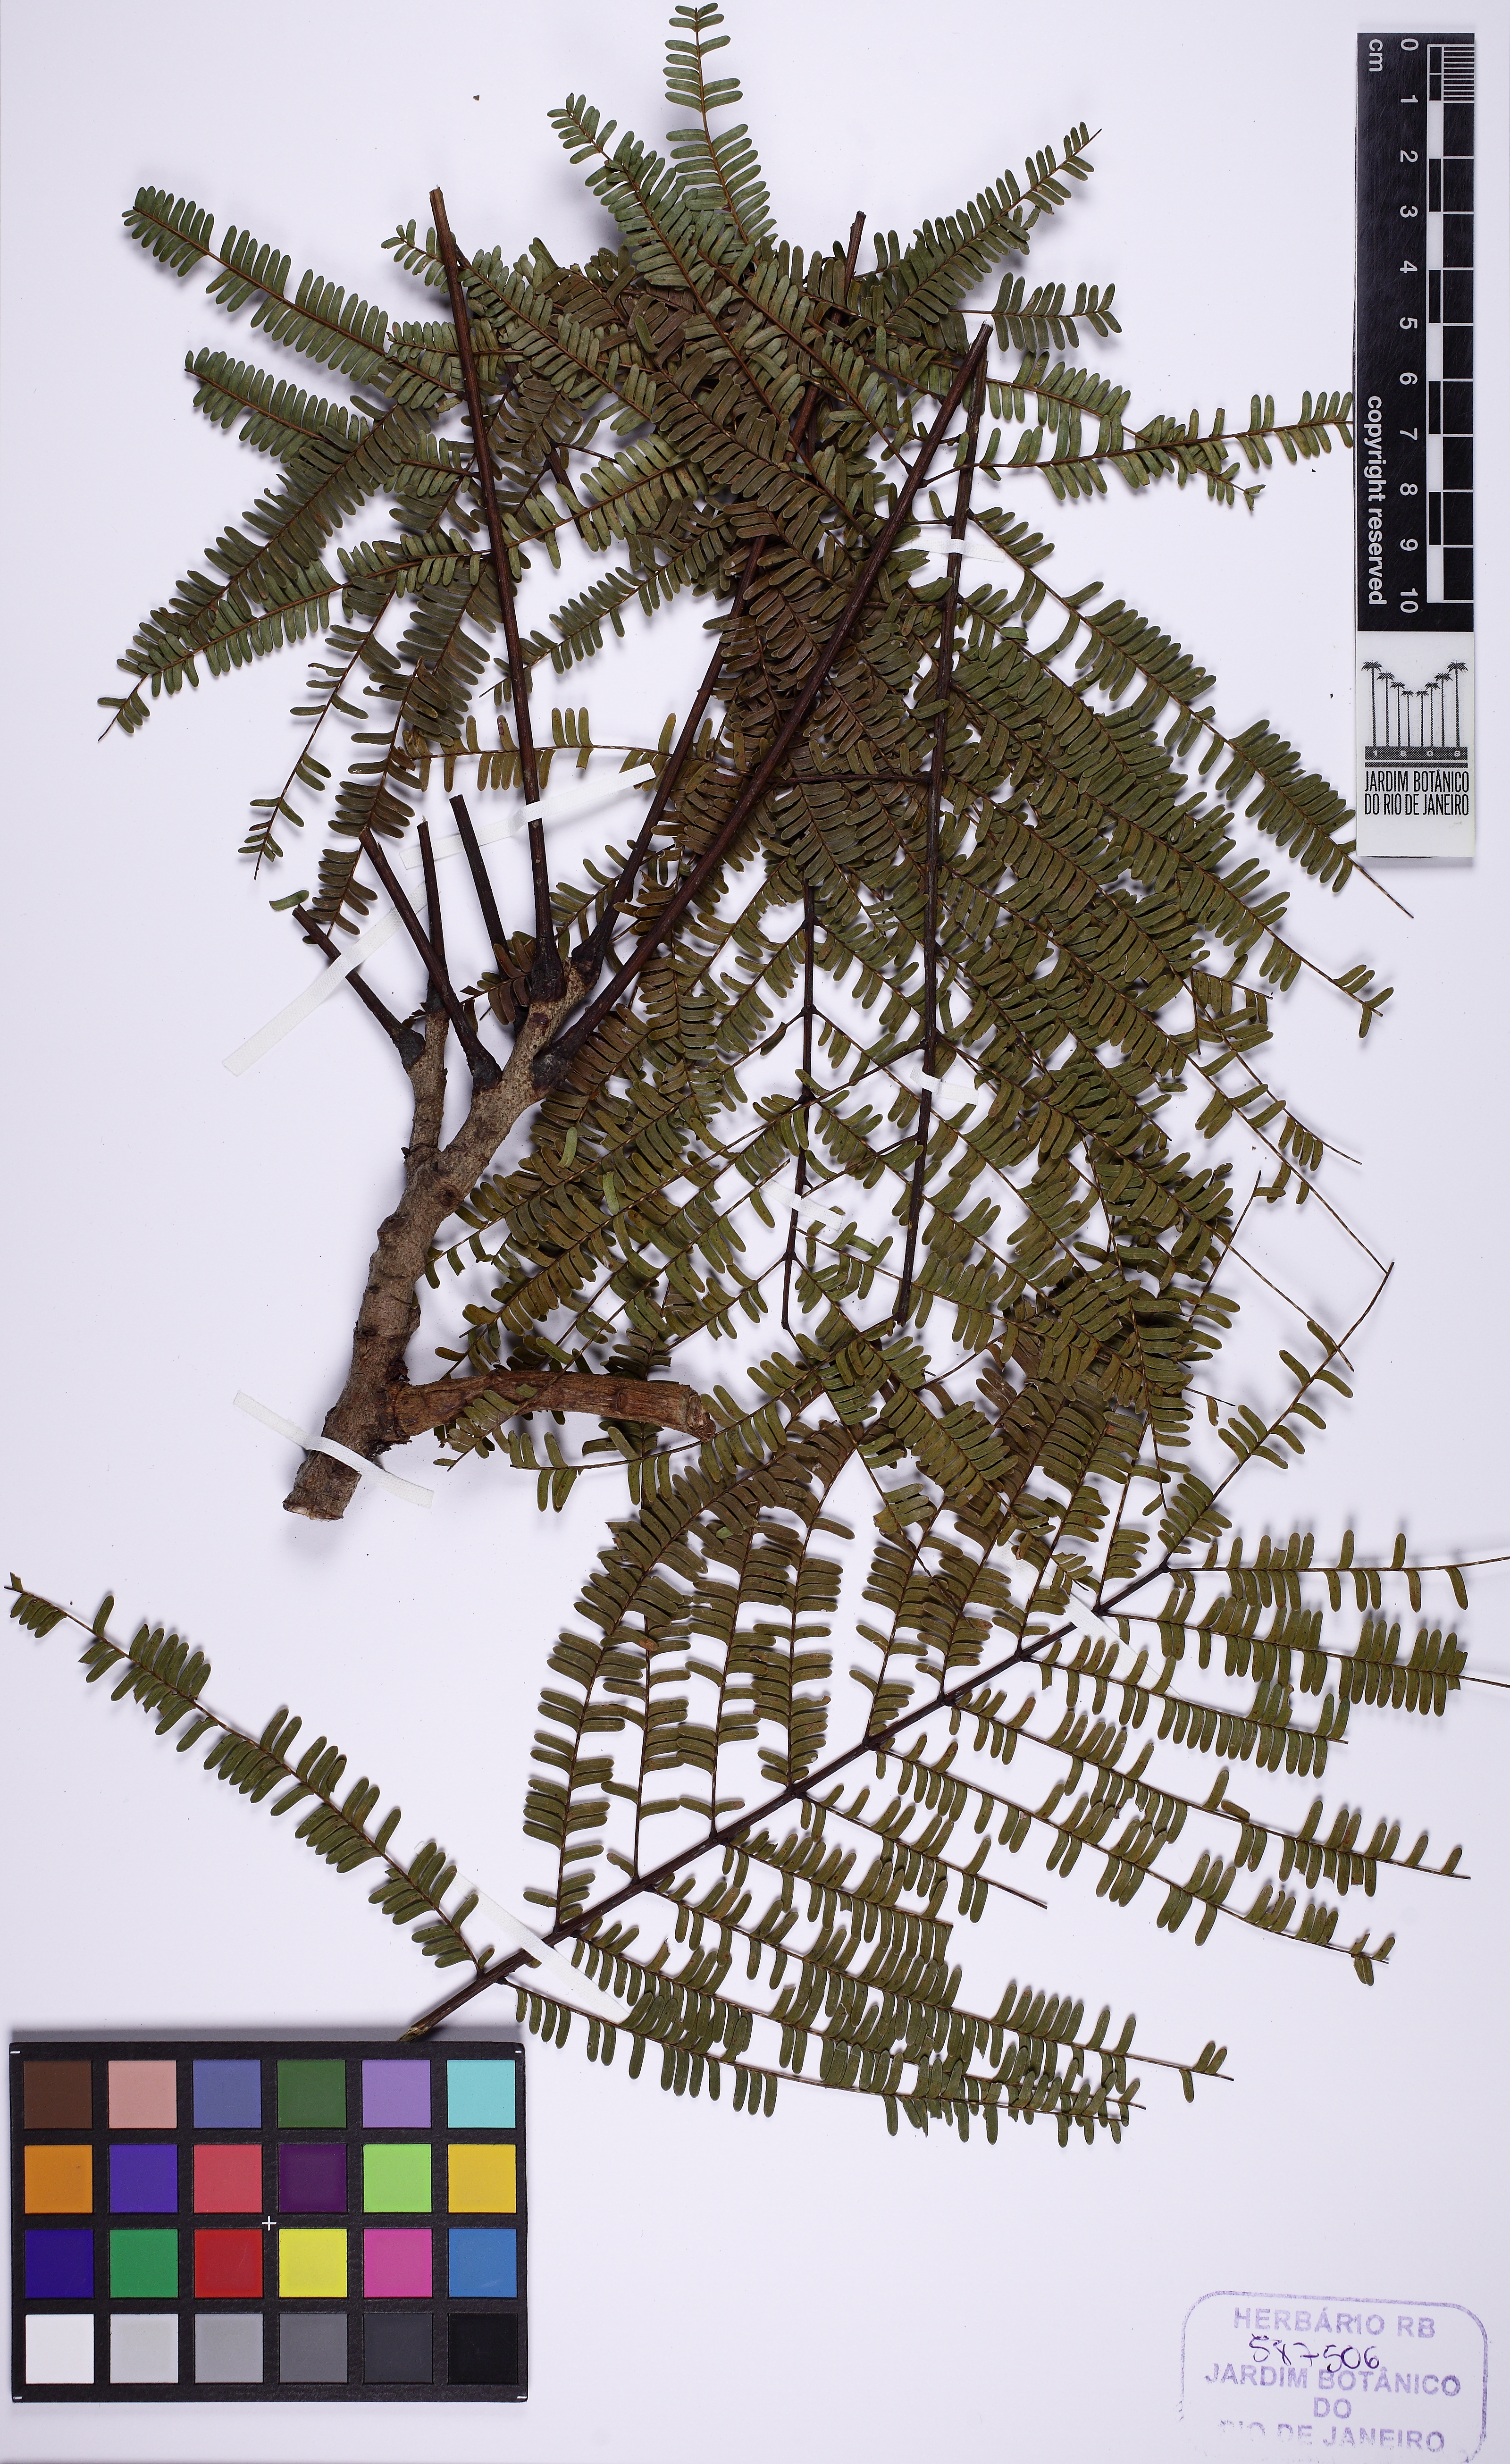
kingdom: Plantae
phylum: Tracheophyta
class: Magnoliopsida
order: Fabales
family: Fabaceae
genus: Parkia
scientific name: Parkia multijuga
